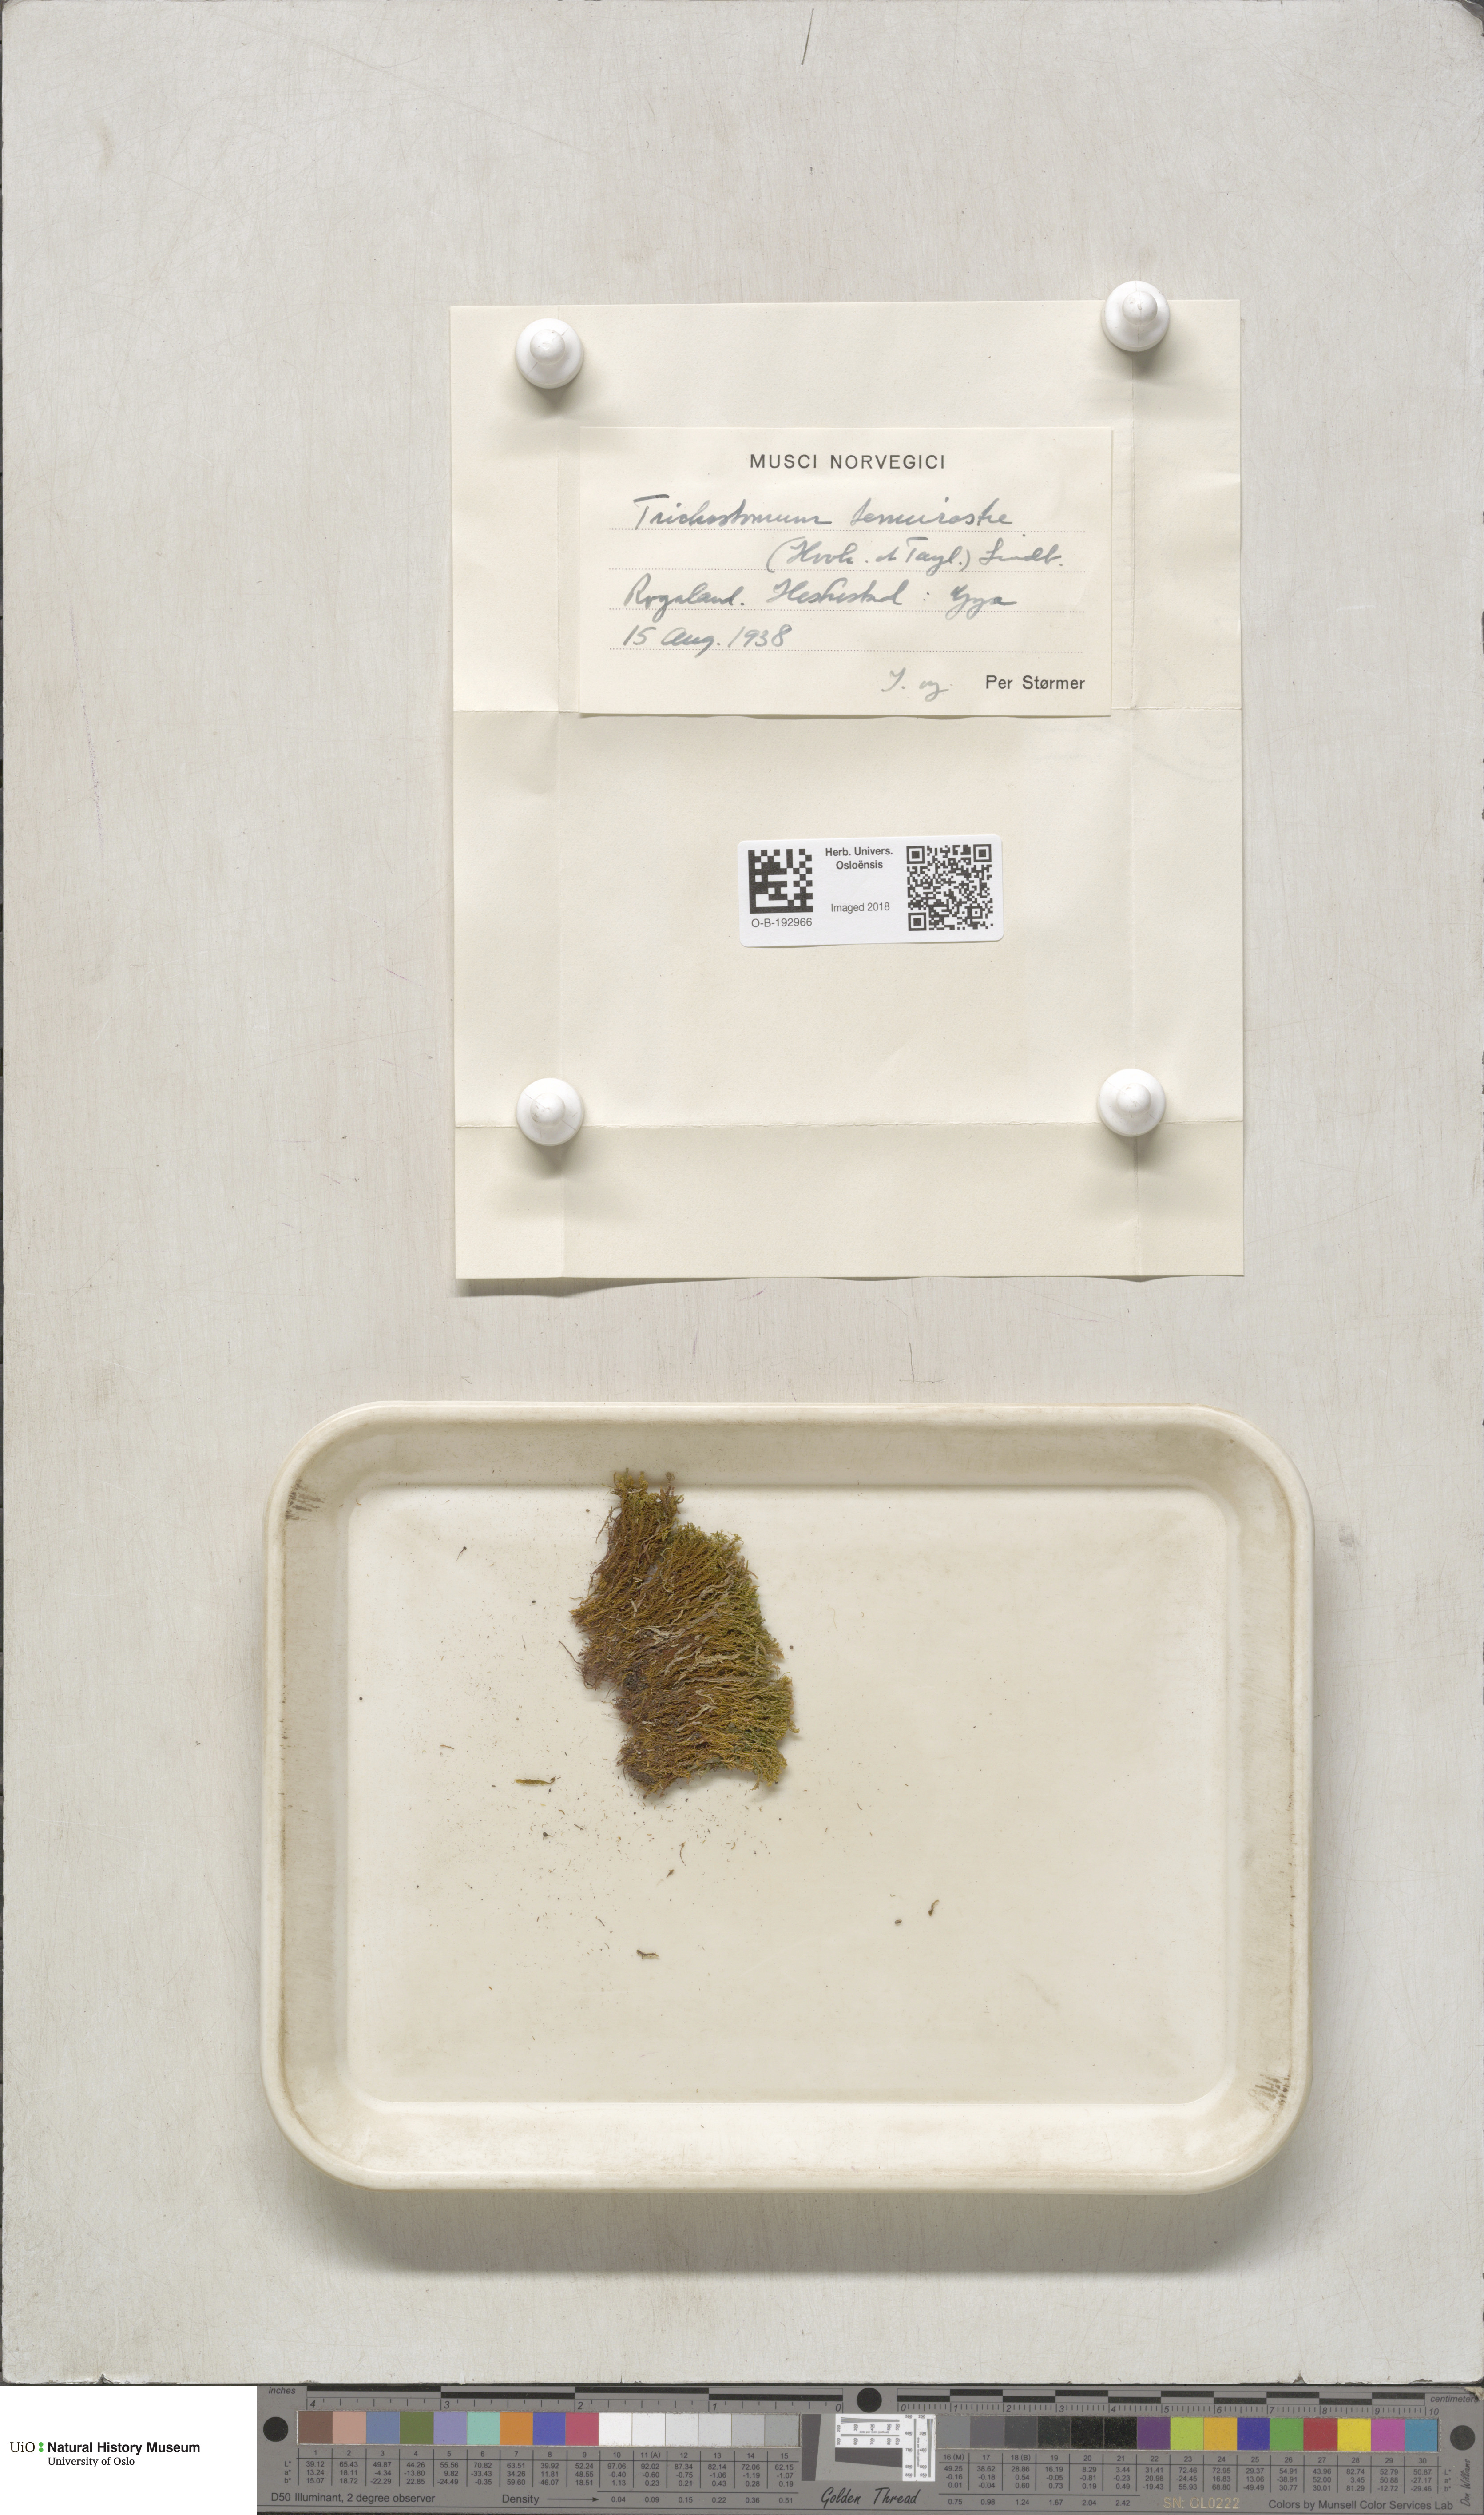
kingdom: Plantae
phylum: Bryophyta
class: Bryopsida
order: Pottiales
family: Pottiaceae
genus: Chionoloma
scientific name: Chionoloma tenuirostre
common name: Narrow-fruited crisp-moss
